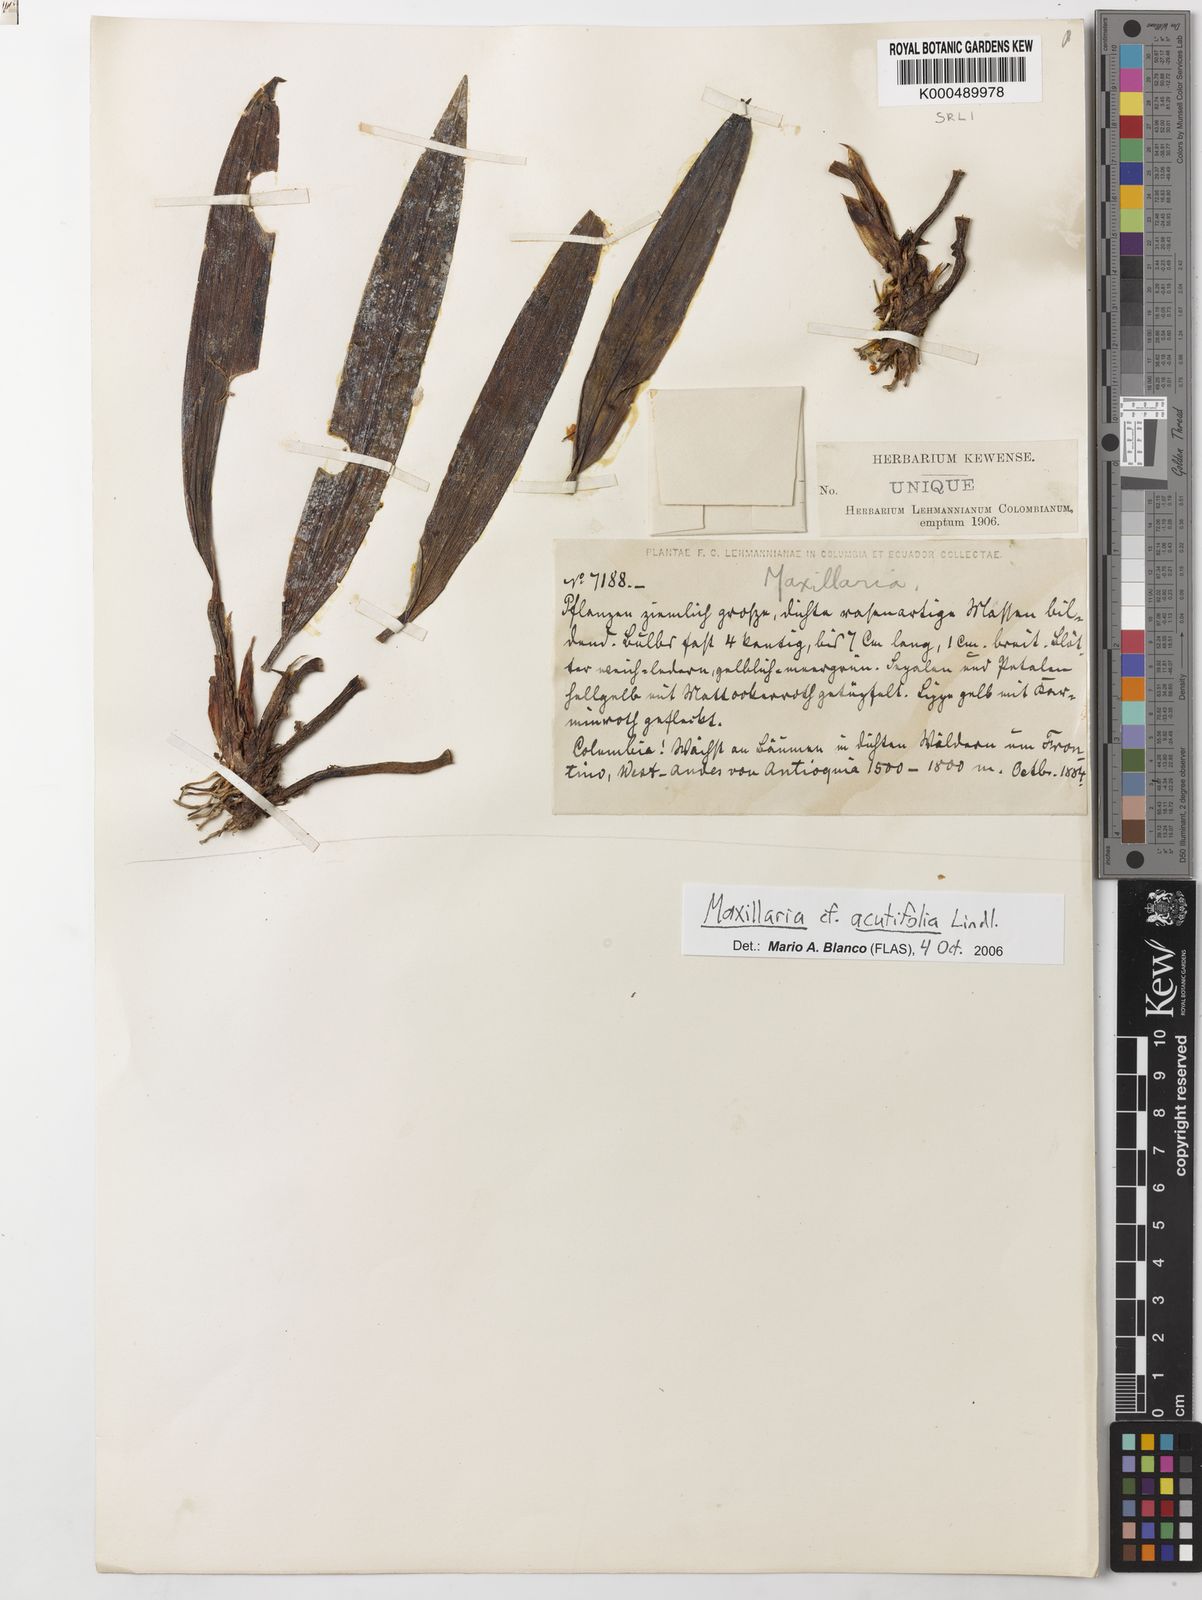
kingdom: Plantae
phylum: Tracheophyta
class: Liliopsida
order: Asparagales
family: Orchidaceae
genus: Maxillaria
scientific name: Maxillaria acutifolia
